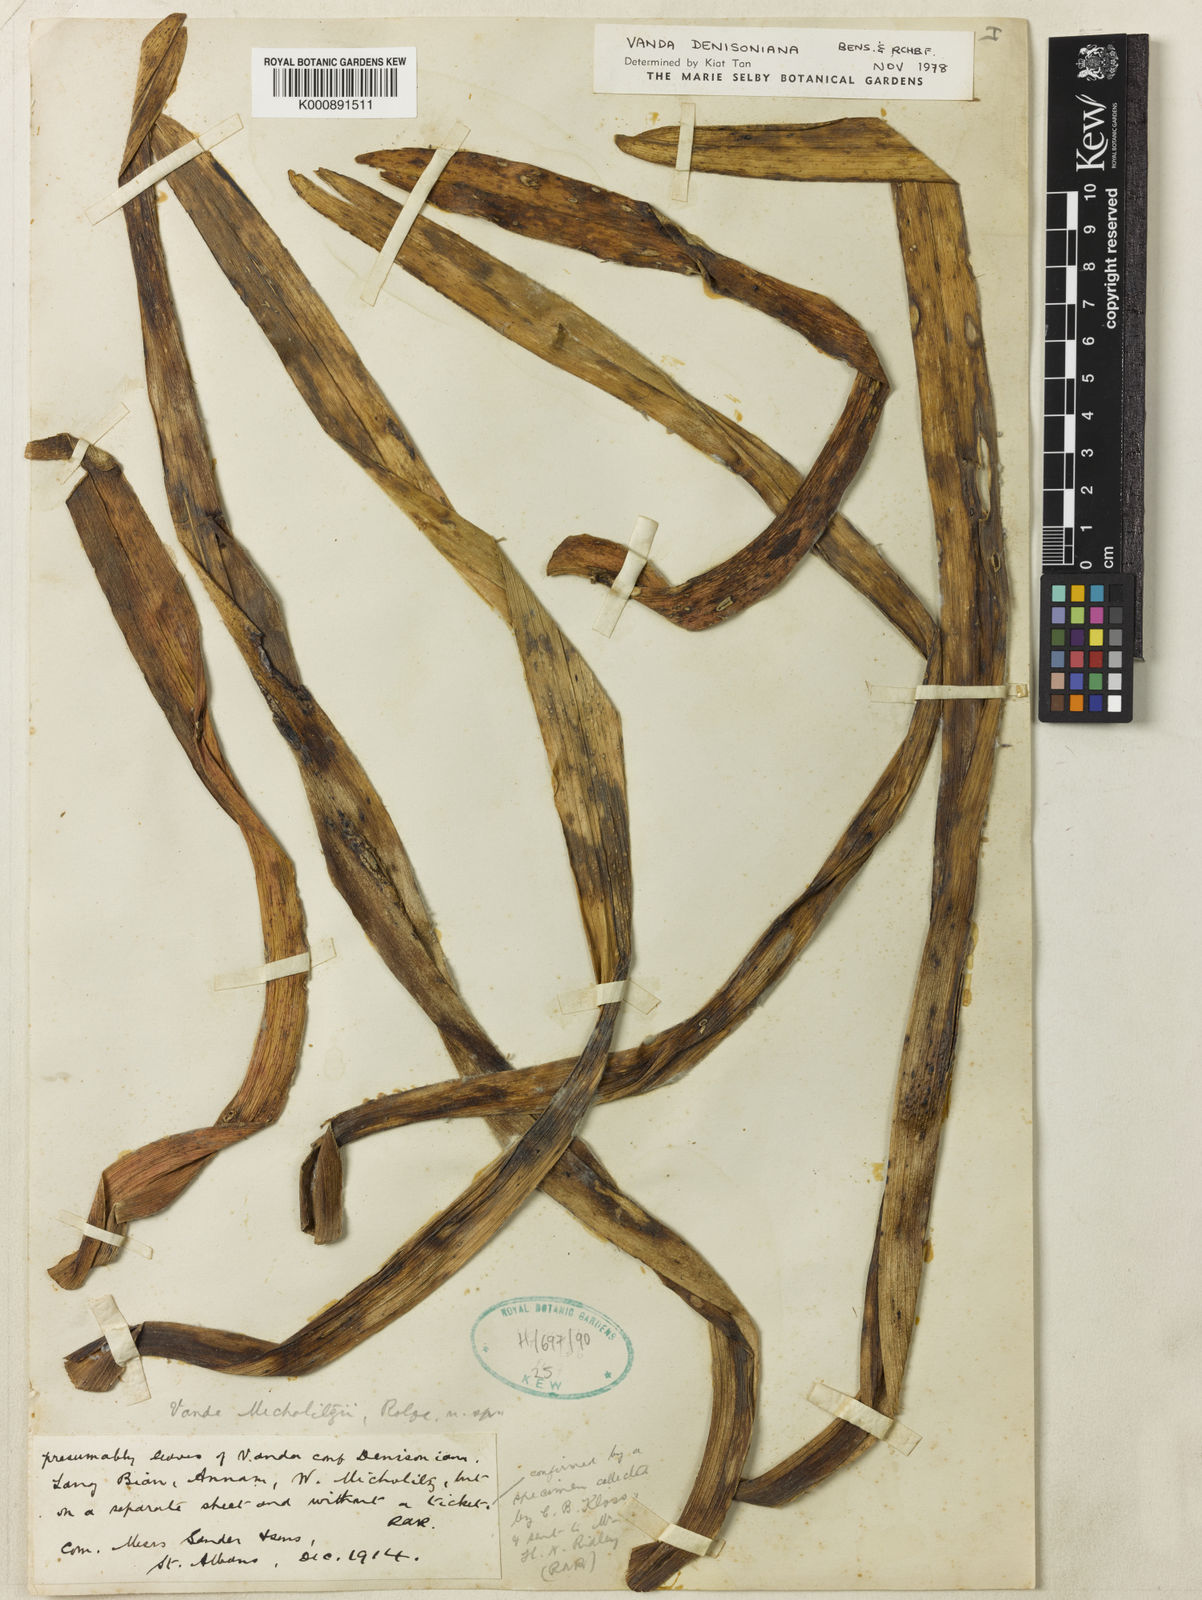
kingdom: Plantae
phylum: Tracheophyta
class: Liliopsida
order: Asparagales
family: Orchidaceae
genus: Vanda
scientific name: Vanda denisoniana
